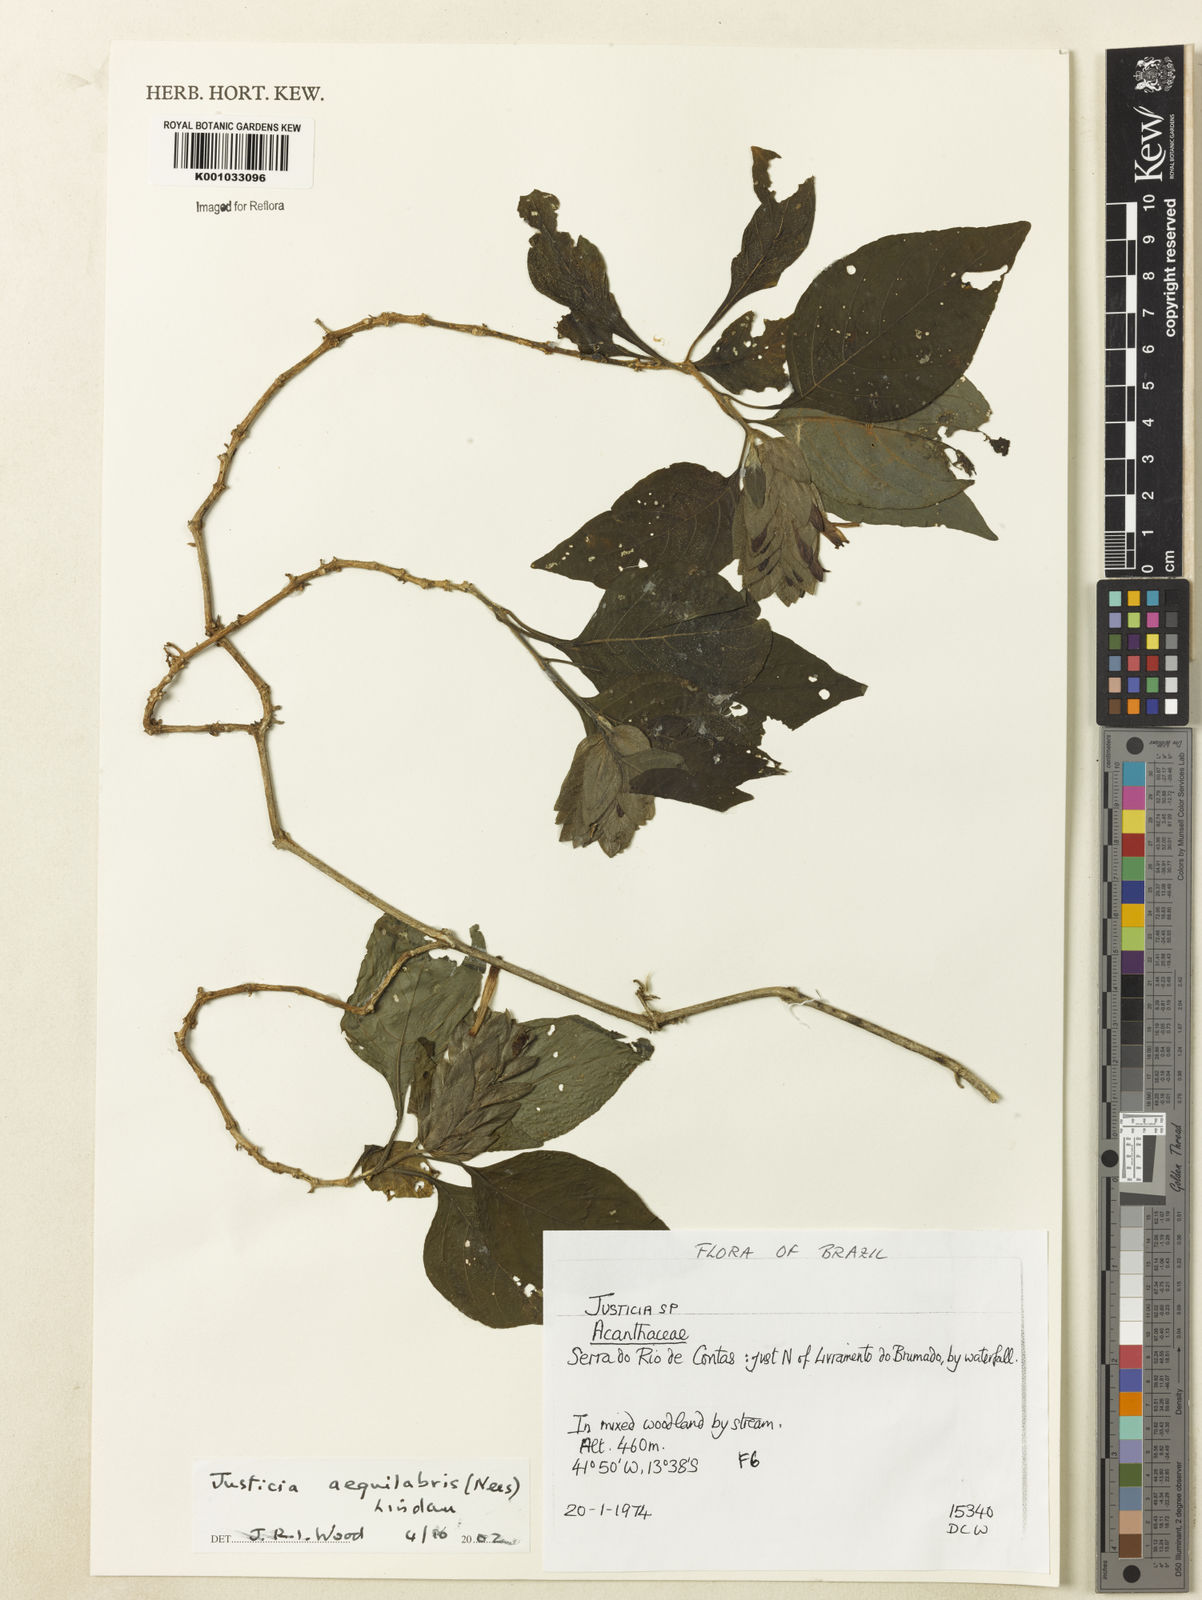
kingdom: Plantae
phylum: Tracheophyta
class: Magnoliopsida
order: Lamiales
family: Acanthaceae
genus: Justicia
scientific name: Justicia aequalis
